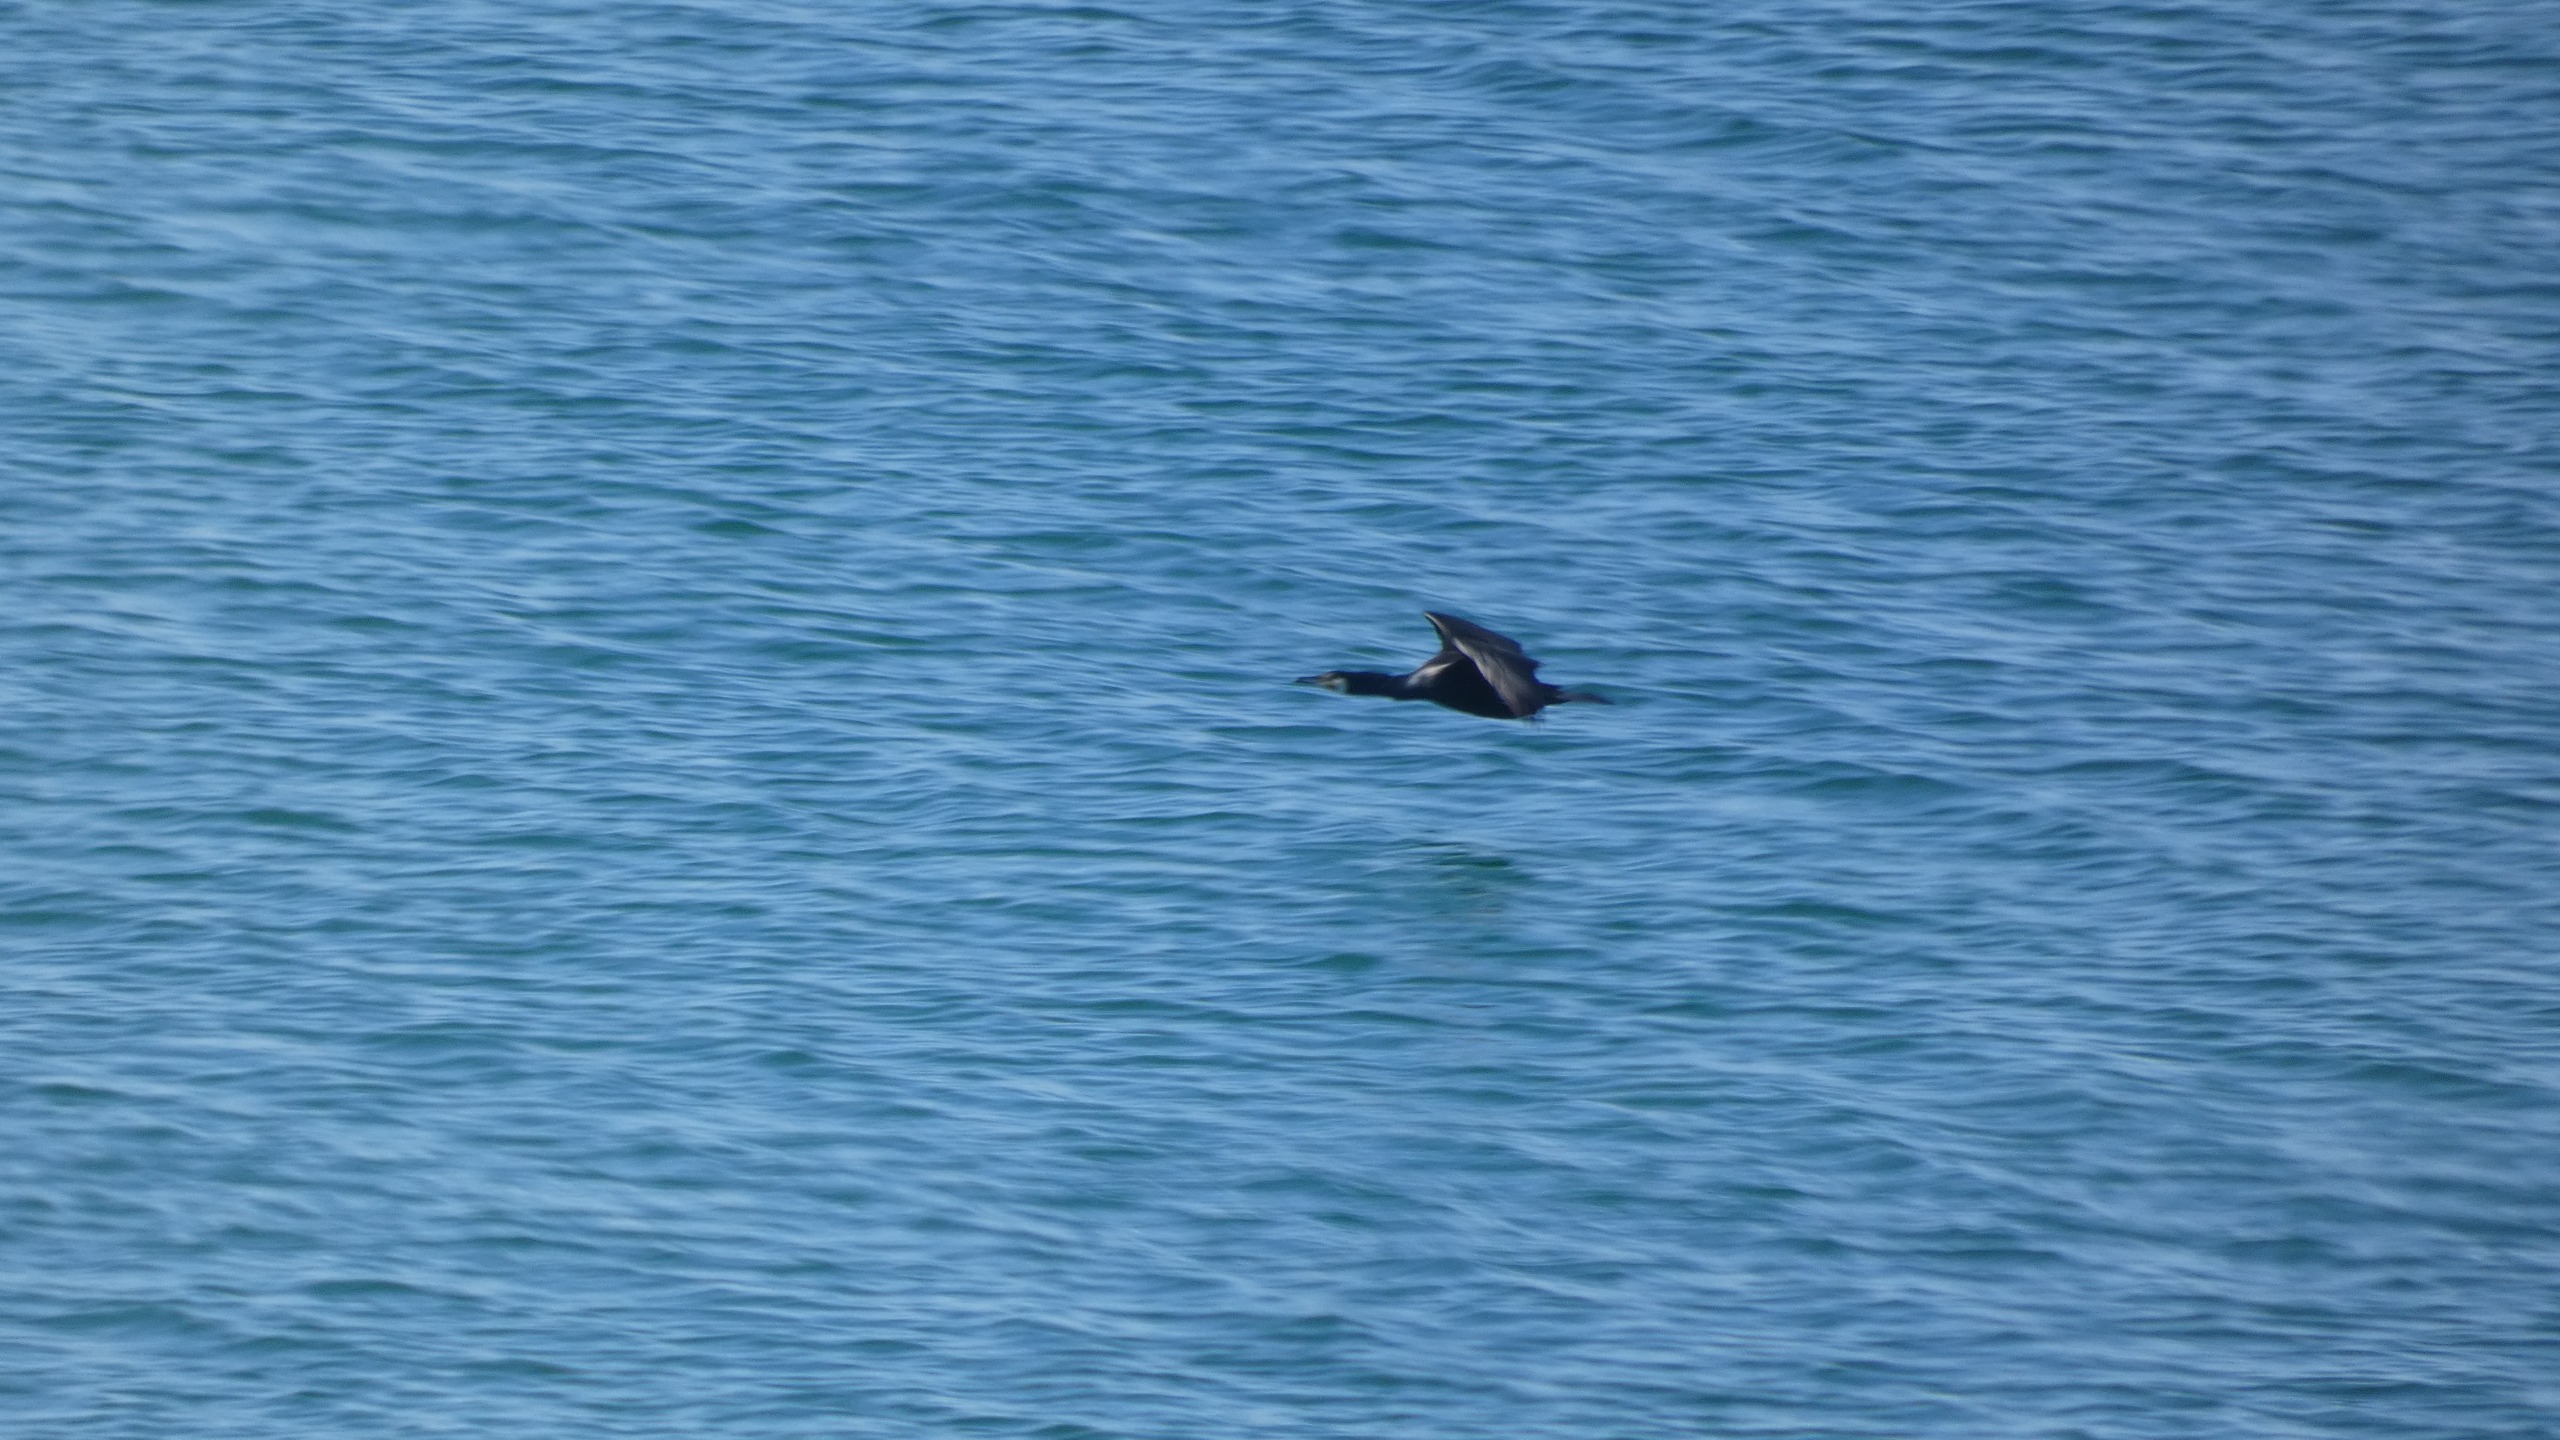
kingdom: Animalia
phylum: Chordata
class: Aves
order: Suliformes
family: Phalacrocoracidae
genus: Phalacrocorax
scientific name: Phalacrocorax carbo
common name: Skarv
